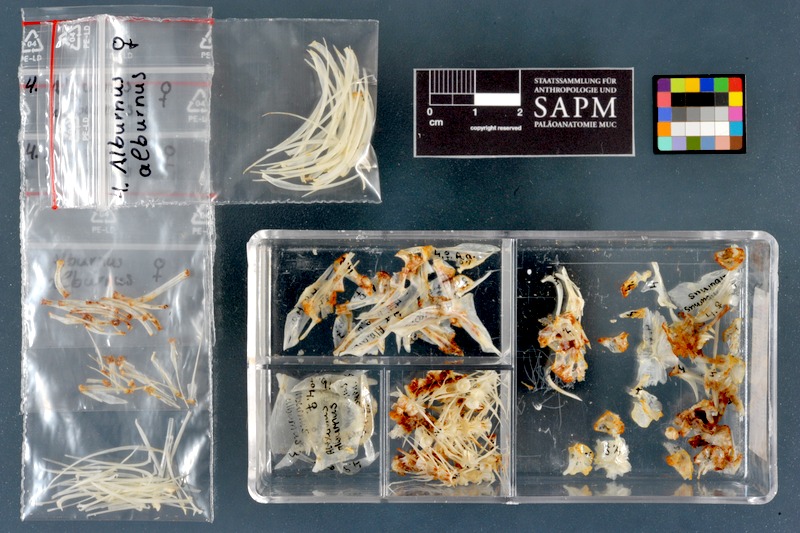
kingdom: Animalia
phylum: Chordata
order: Cypriniformes
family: Cyprinidae
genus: Alburnus
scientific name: Alburnus alburnus
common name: Bleak
